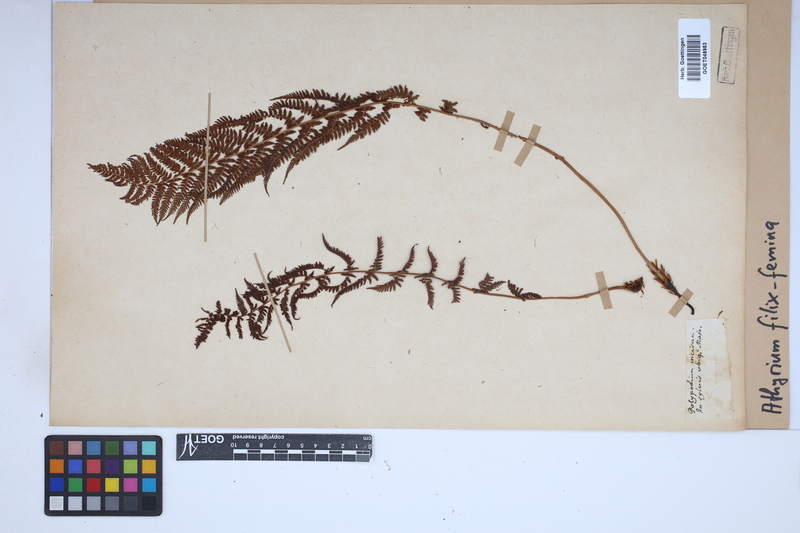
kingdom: Plantae
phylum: Tracheophyta
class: Polypodiopsida
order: Polypodiales
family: Athyriaceae
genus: Athyrium
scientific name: Athyrium filix-femina
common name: Lady fern
